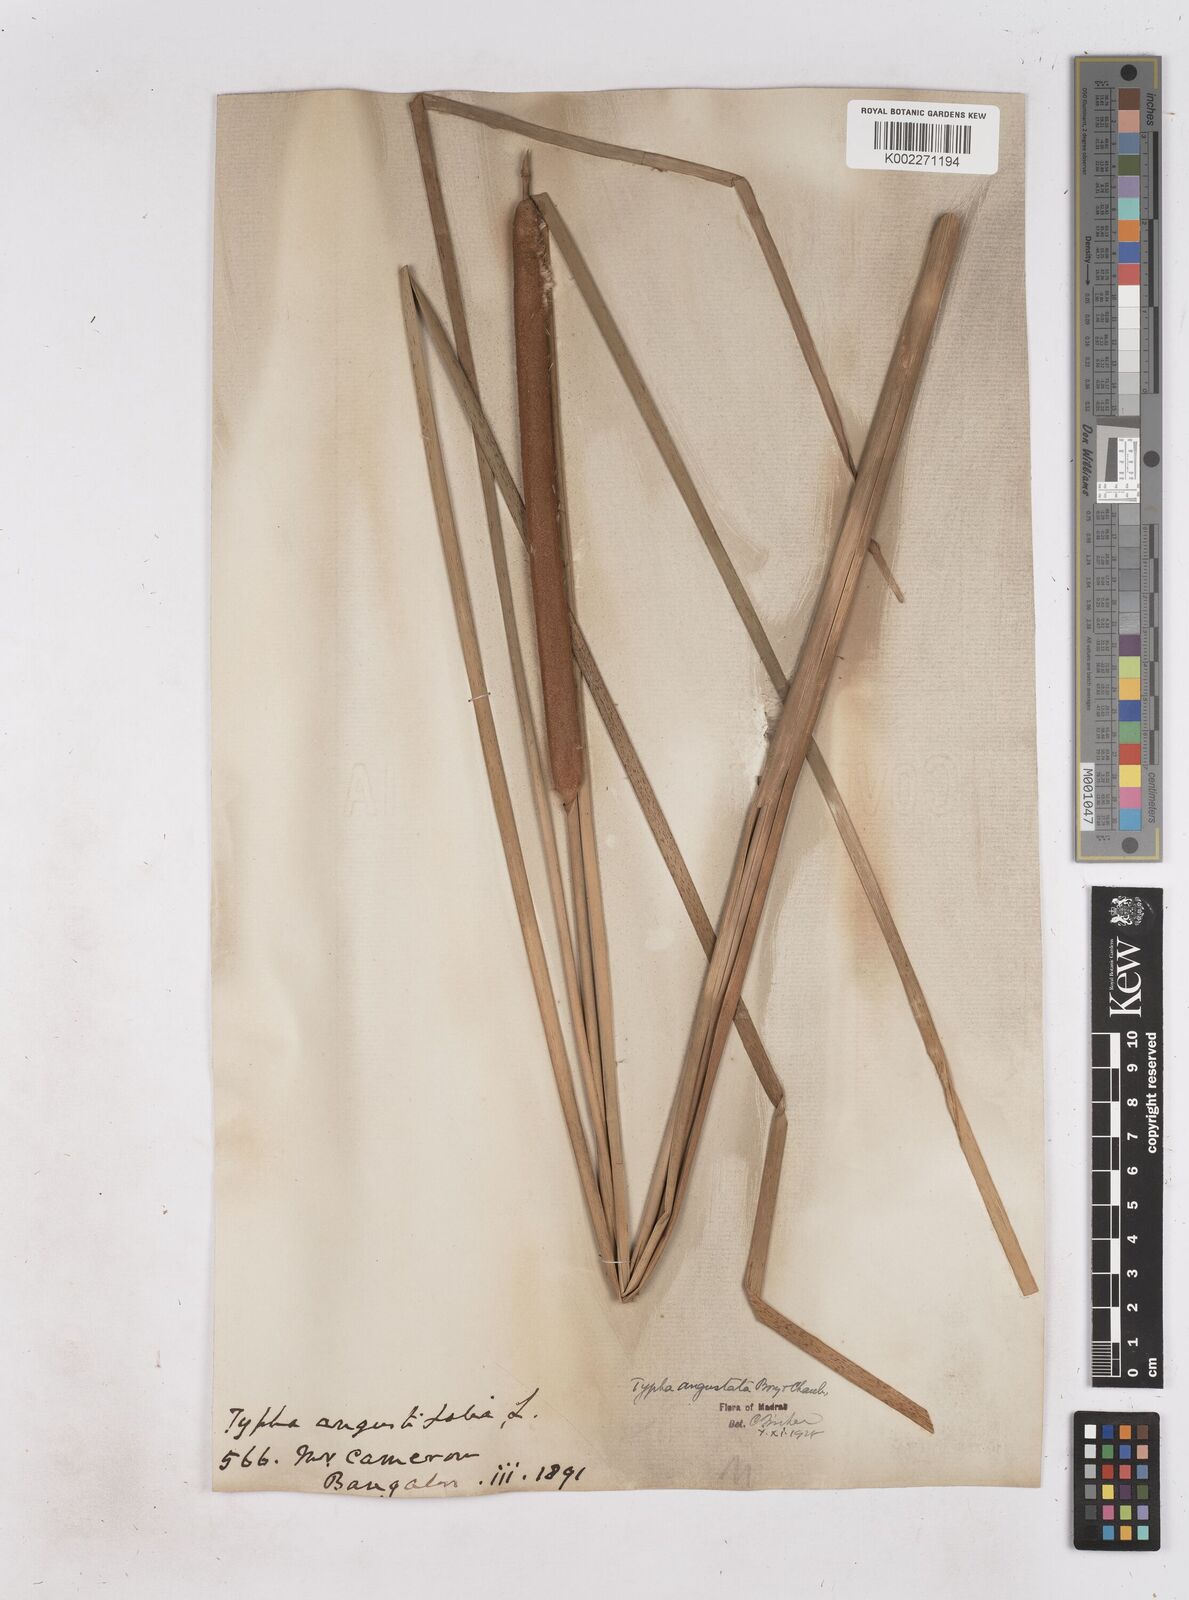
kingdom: Plantae
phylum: Tracheophyta
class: Liliopsida
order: Poales
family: Typhaceae
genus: Typha
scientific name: Typha domingensis
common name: Southern cattail
